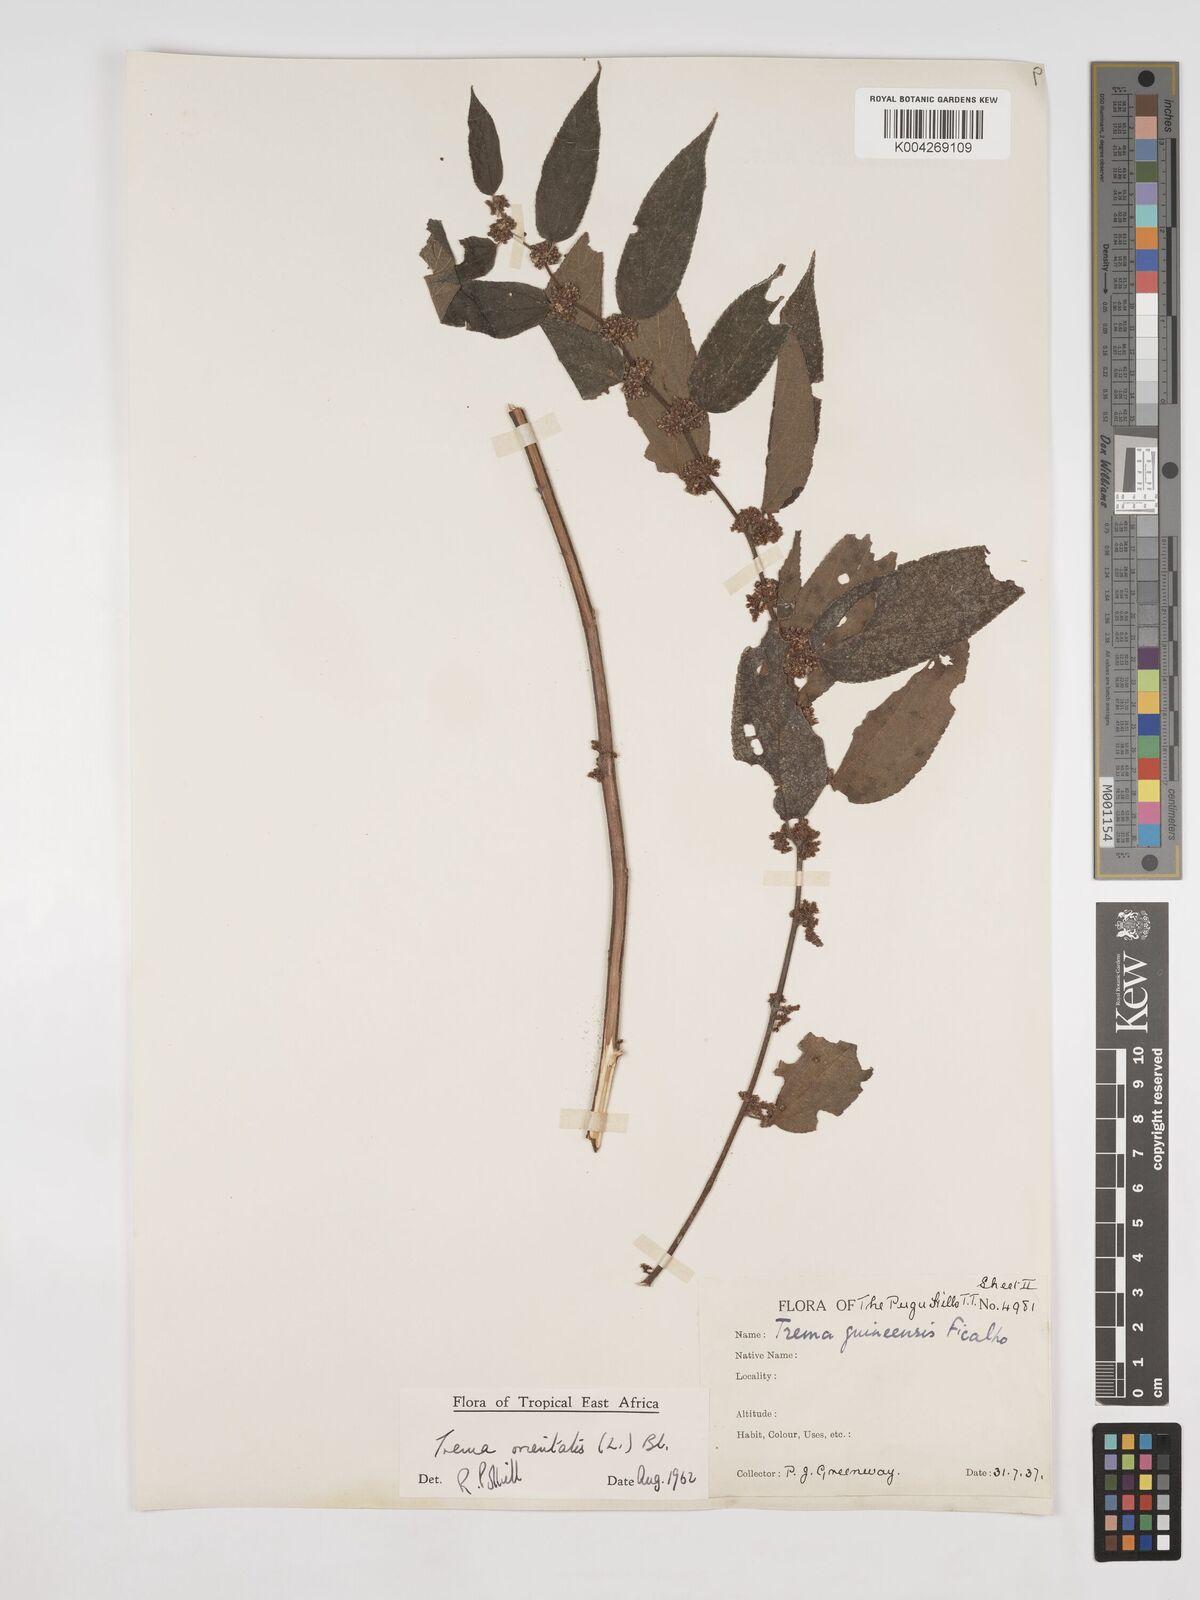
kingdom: Plantae
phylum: Tracheophyta
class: Magnoliopsida
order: Rosales
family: Cannabaceae
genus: Trema
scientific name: Trema orientale
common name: Indian charcoal tree
